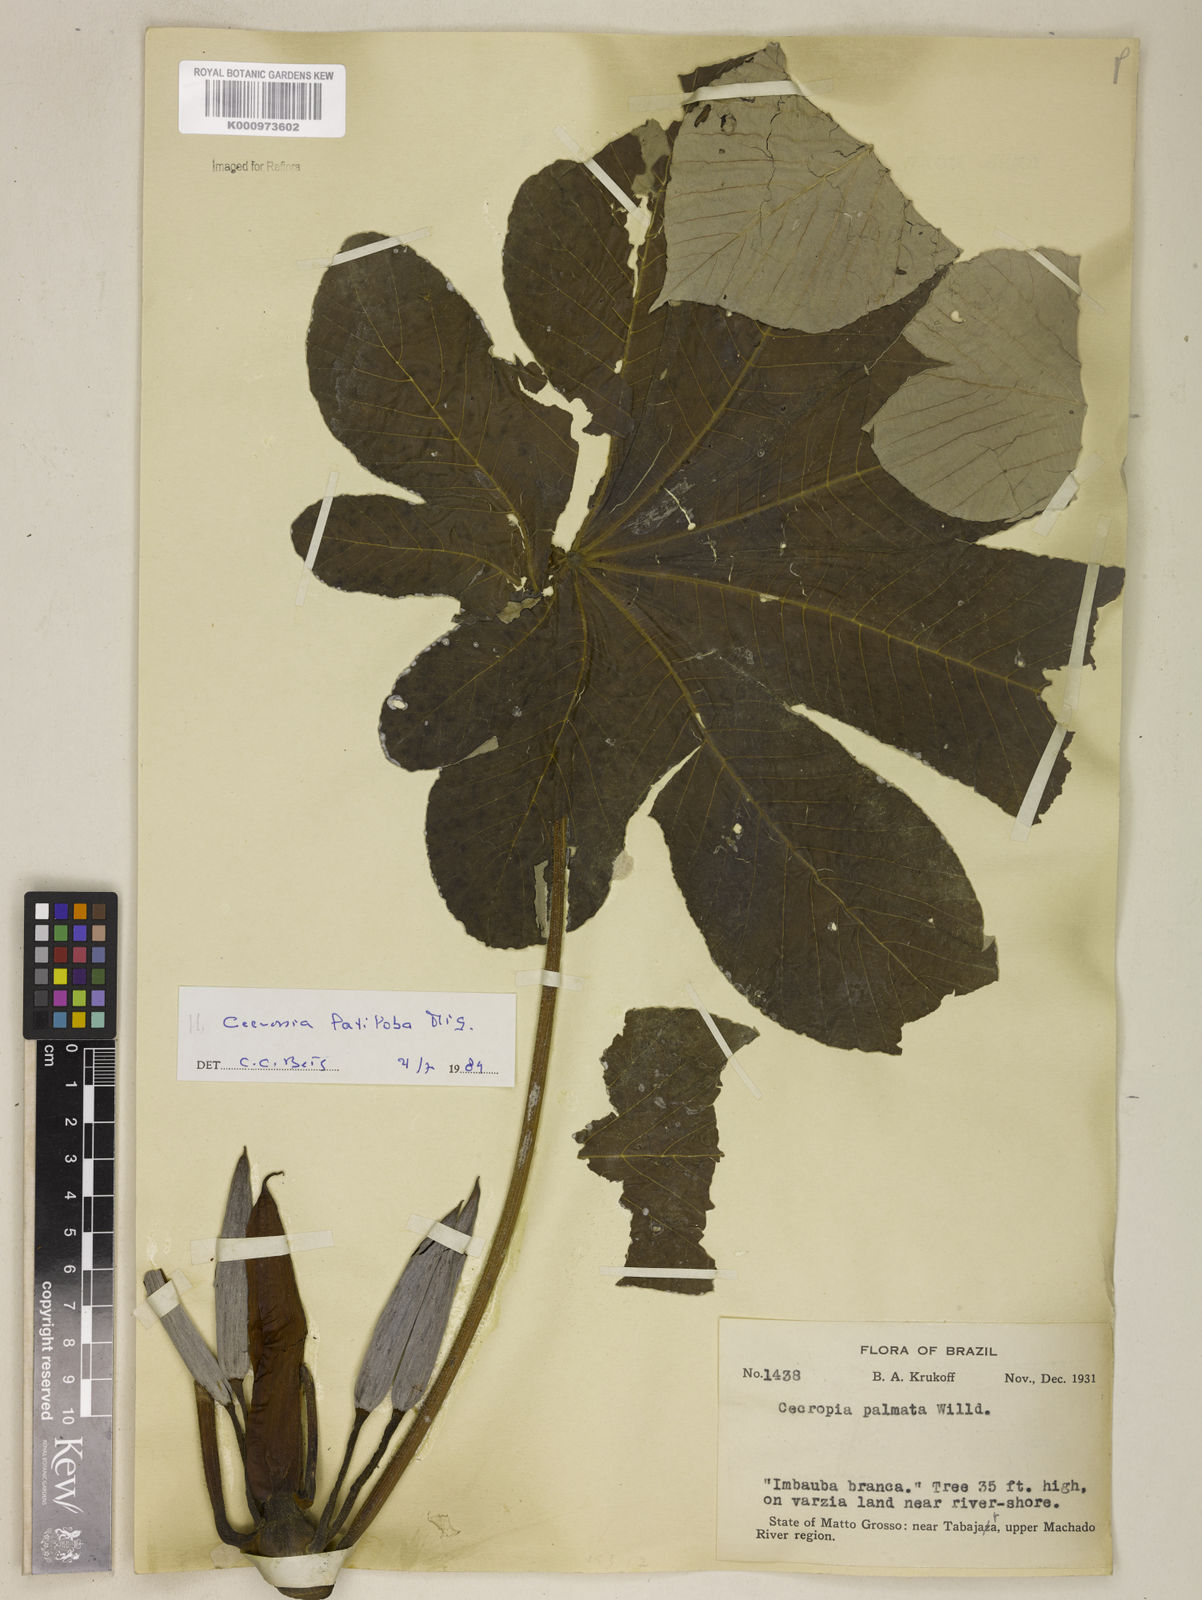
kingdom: Plantae
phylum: Tracheophyta
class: Magnoliopsida
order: Rosales
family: Urticaceae
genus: Cecropia
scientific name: Cecropia latiloba
